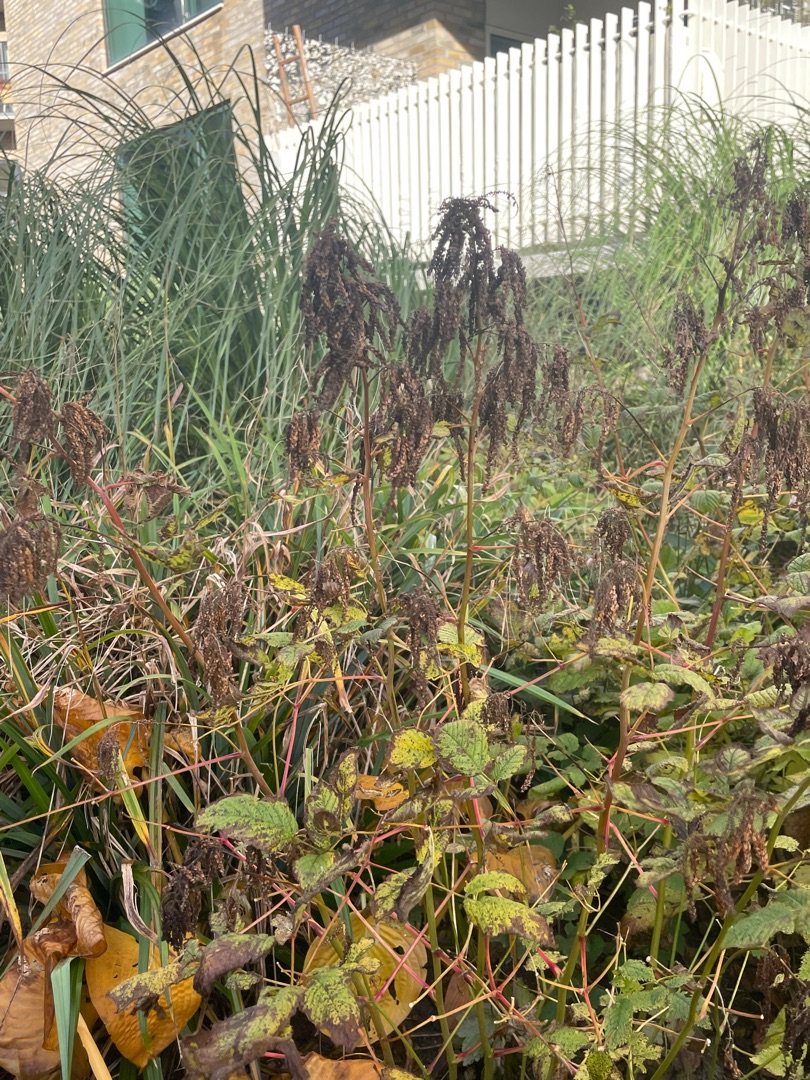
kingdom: Plantae
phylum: Tracheophyta
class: Magnoliopsida
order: Rosales
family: Rosaceae
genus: Aruncus
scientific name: Aruncus dioicus
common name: Fjerbusk
